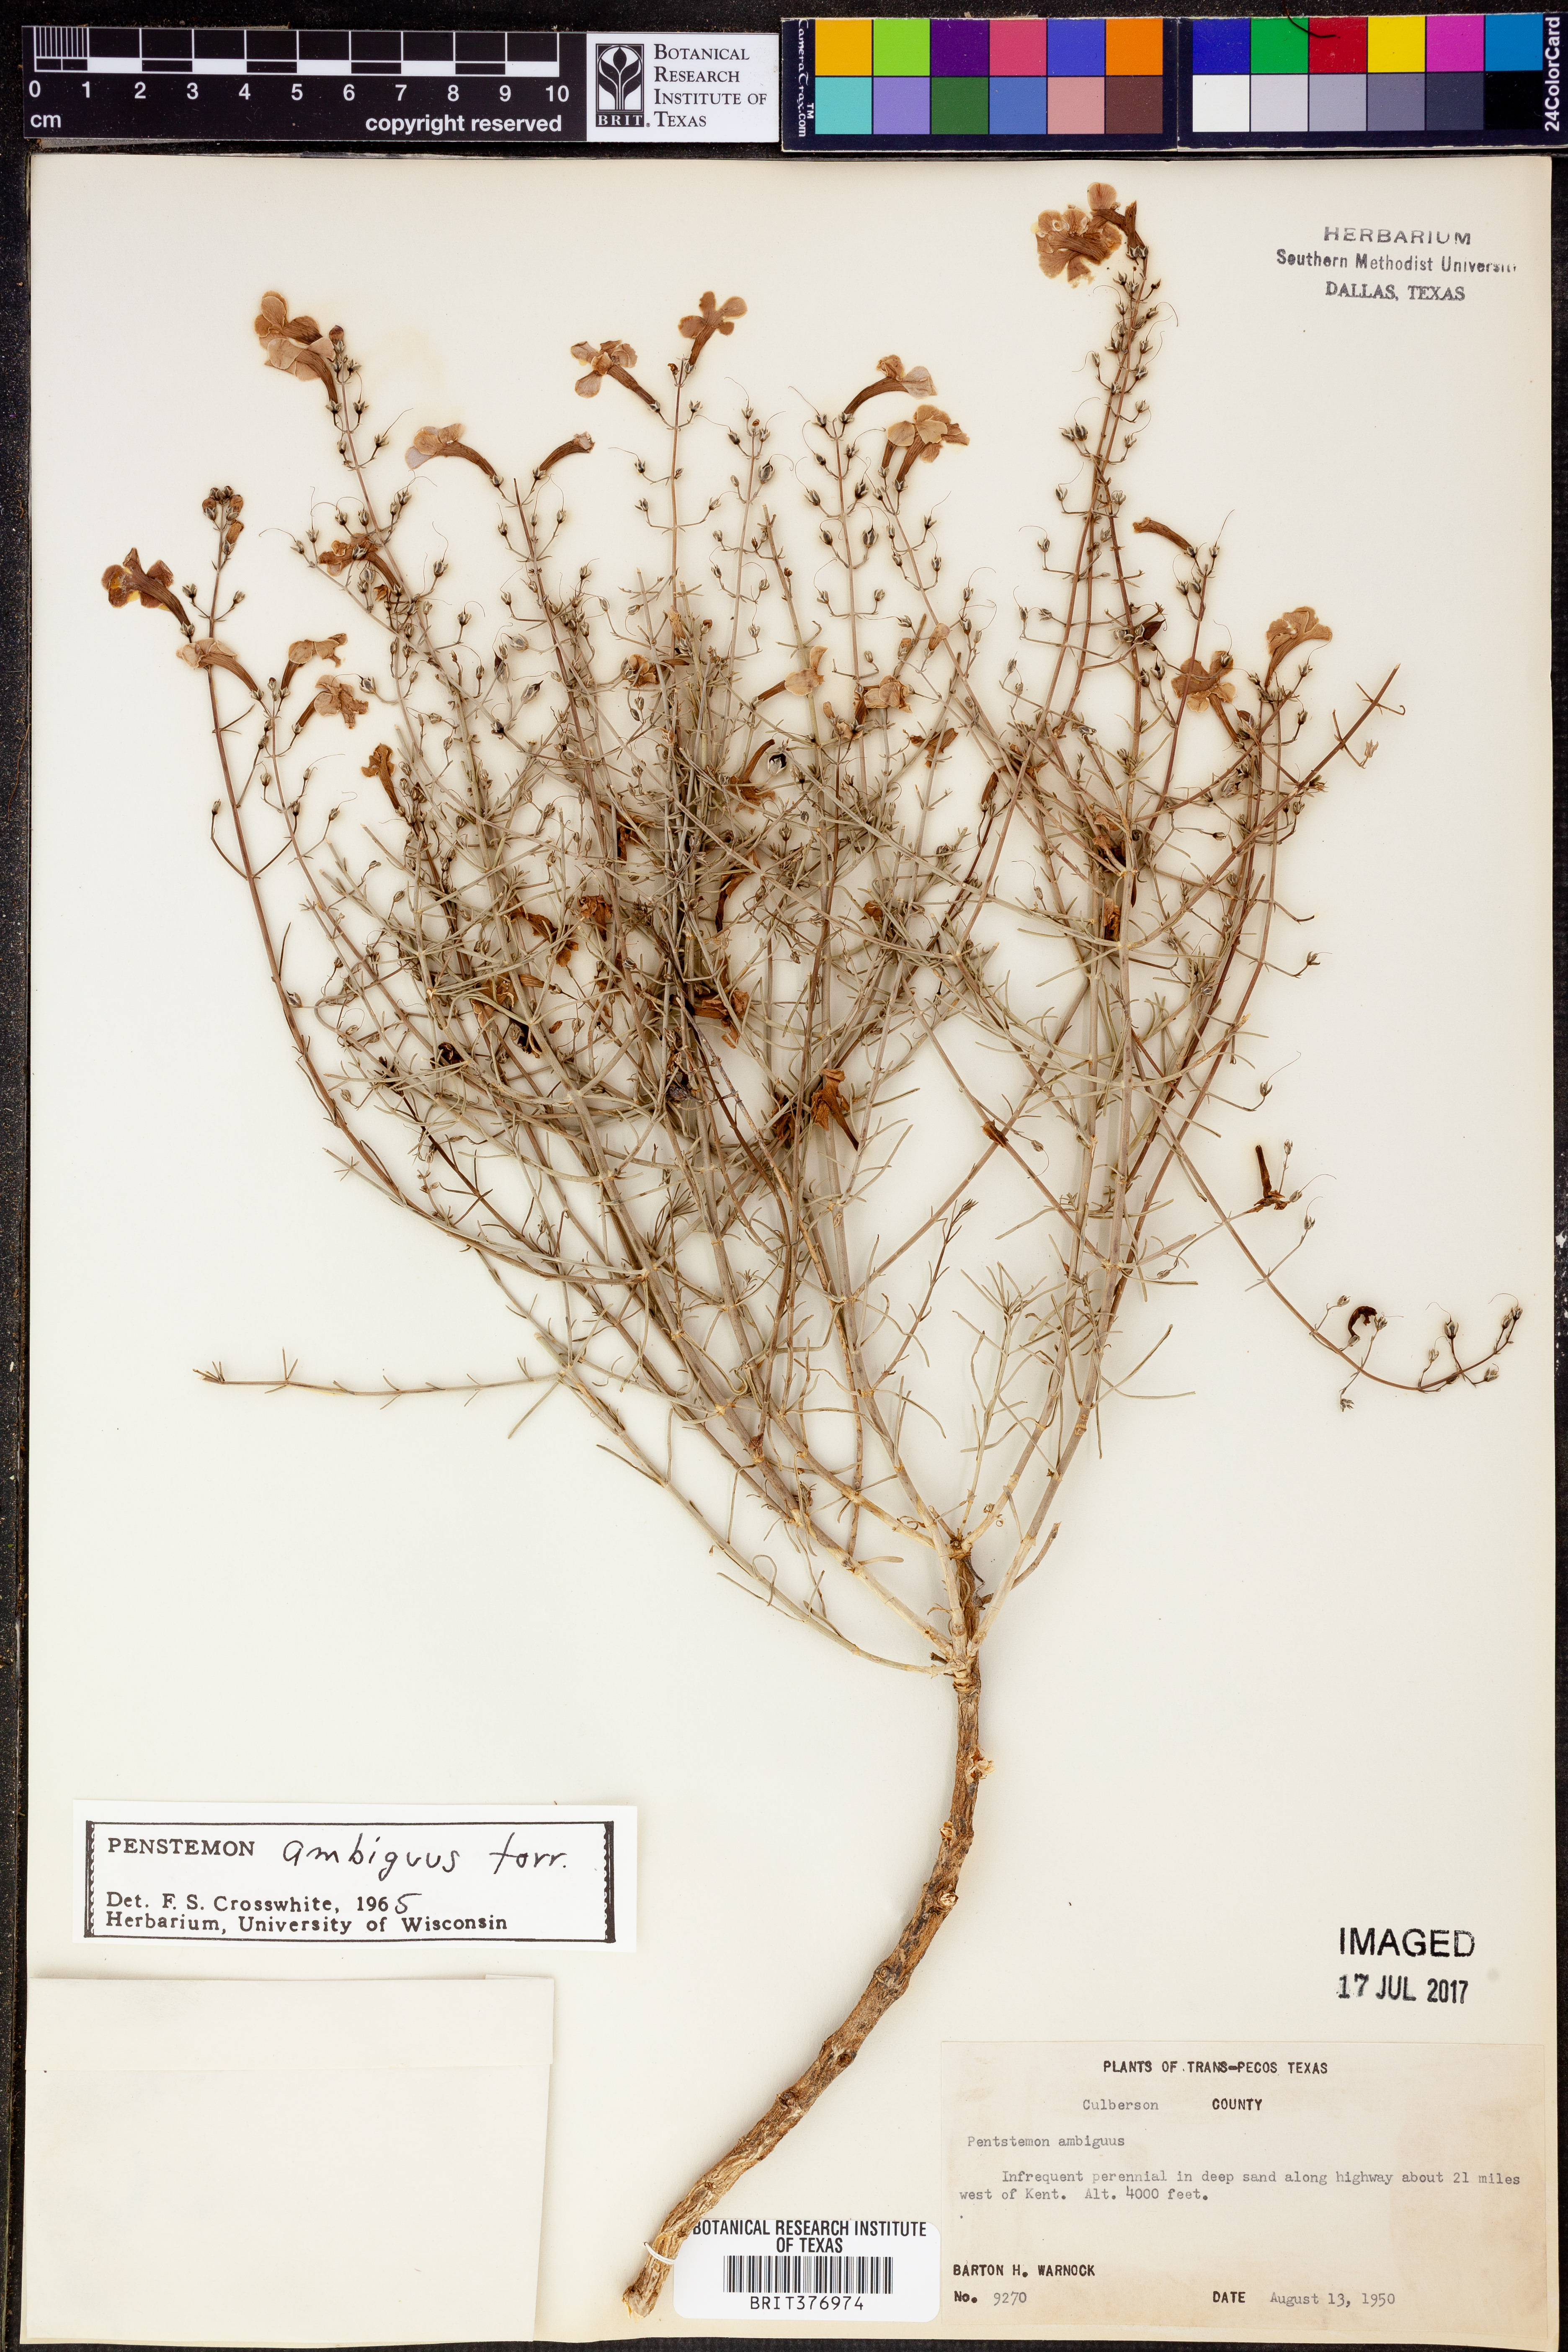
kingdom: Plantae
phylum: Tracheophyta
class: Magnoliopsida
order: Lamiales
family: Plantaginaceae
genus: Penstemon
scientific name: Penstemon ambiguus
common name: Bush penstemon
